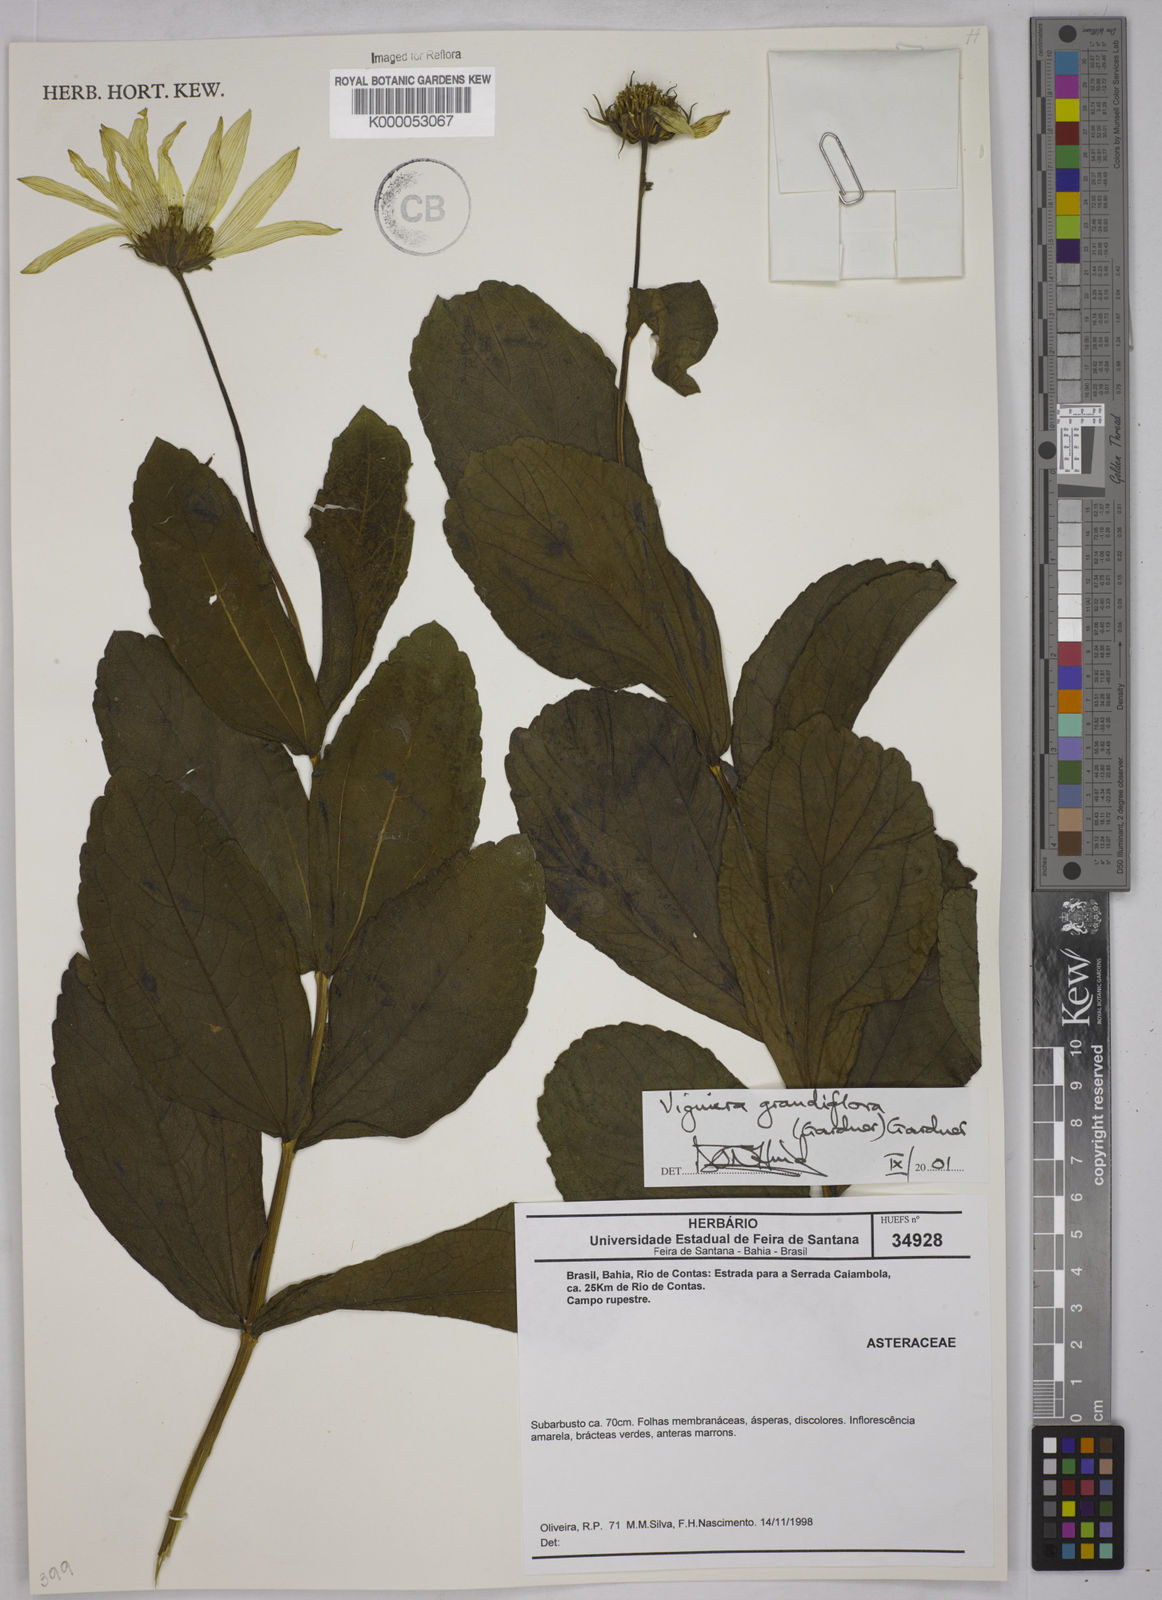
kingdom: Plantae
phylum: Tracheophyta
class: Magnoliopsida
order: Asterales
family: Asteraceae
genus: Aldama
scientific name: Aldama grandiflora
